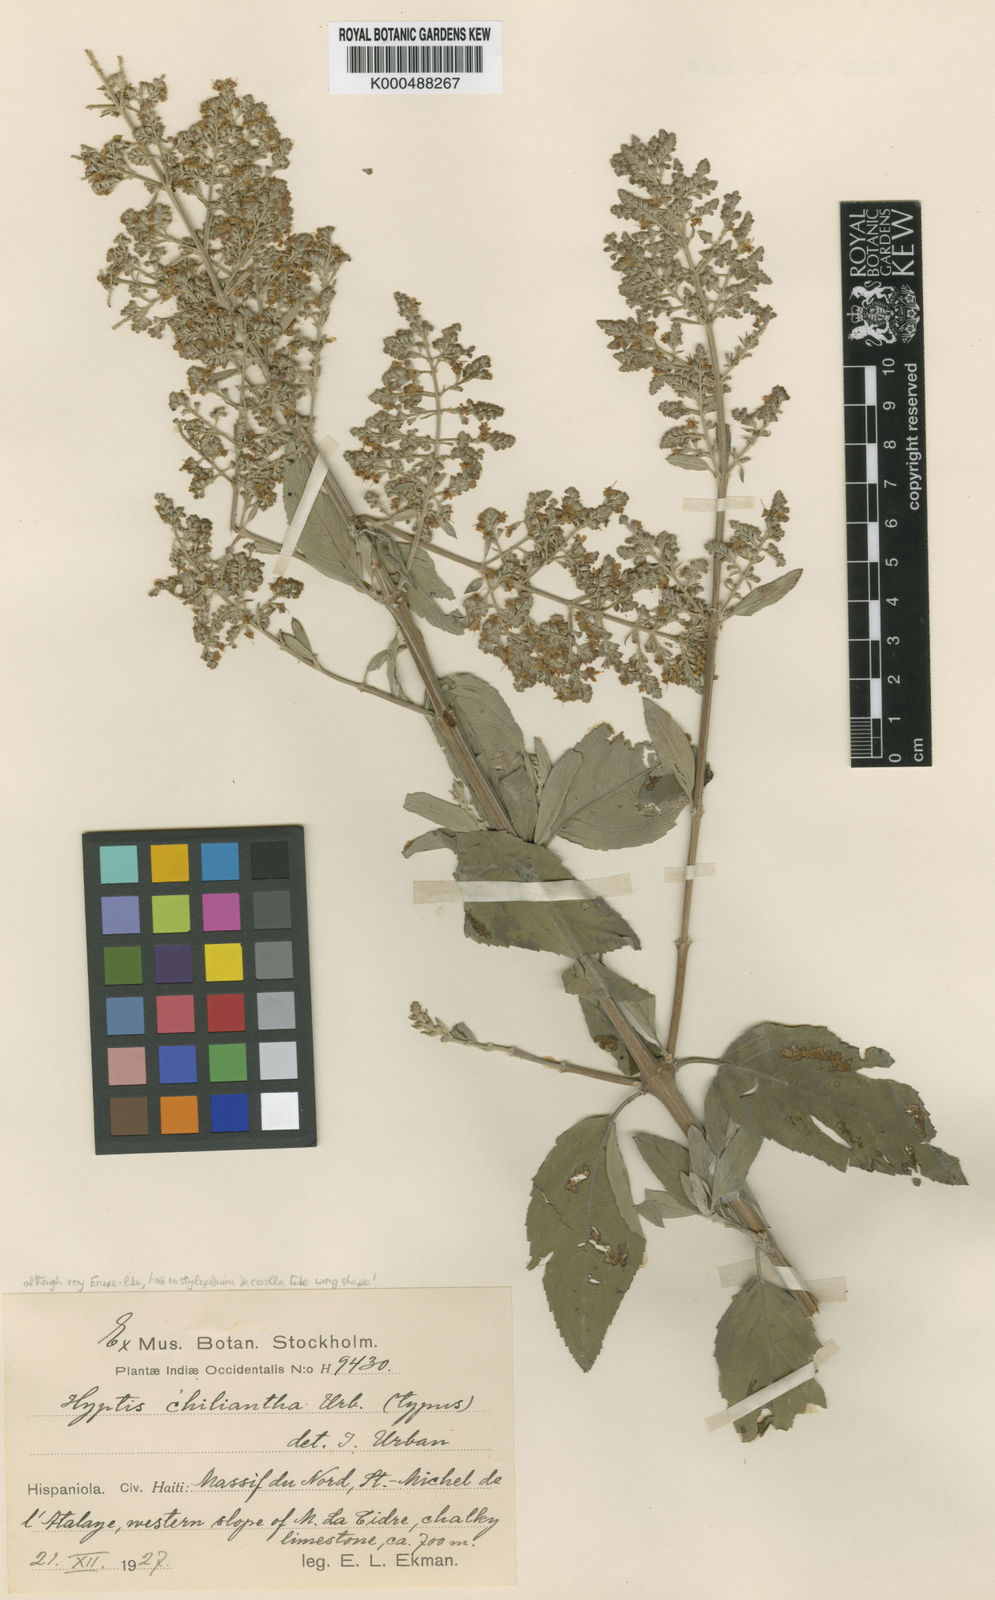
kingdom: Plantae
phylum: Tracheophyta
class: Magnoliopsida
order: Lamiales
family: Lamiaceae
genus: Condea
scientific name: Condea chyliantha
